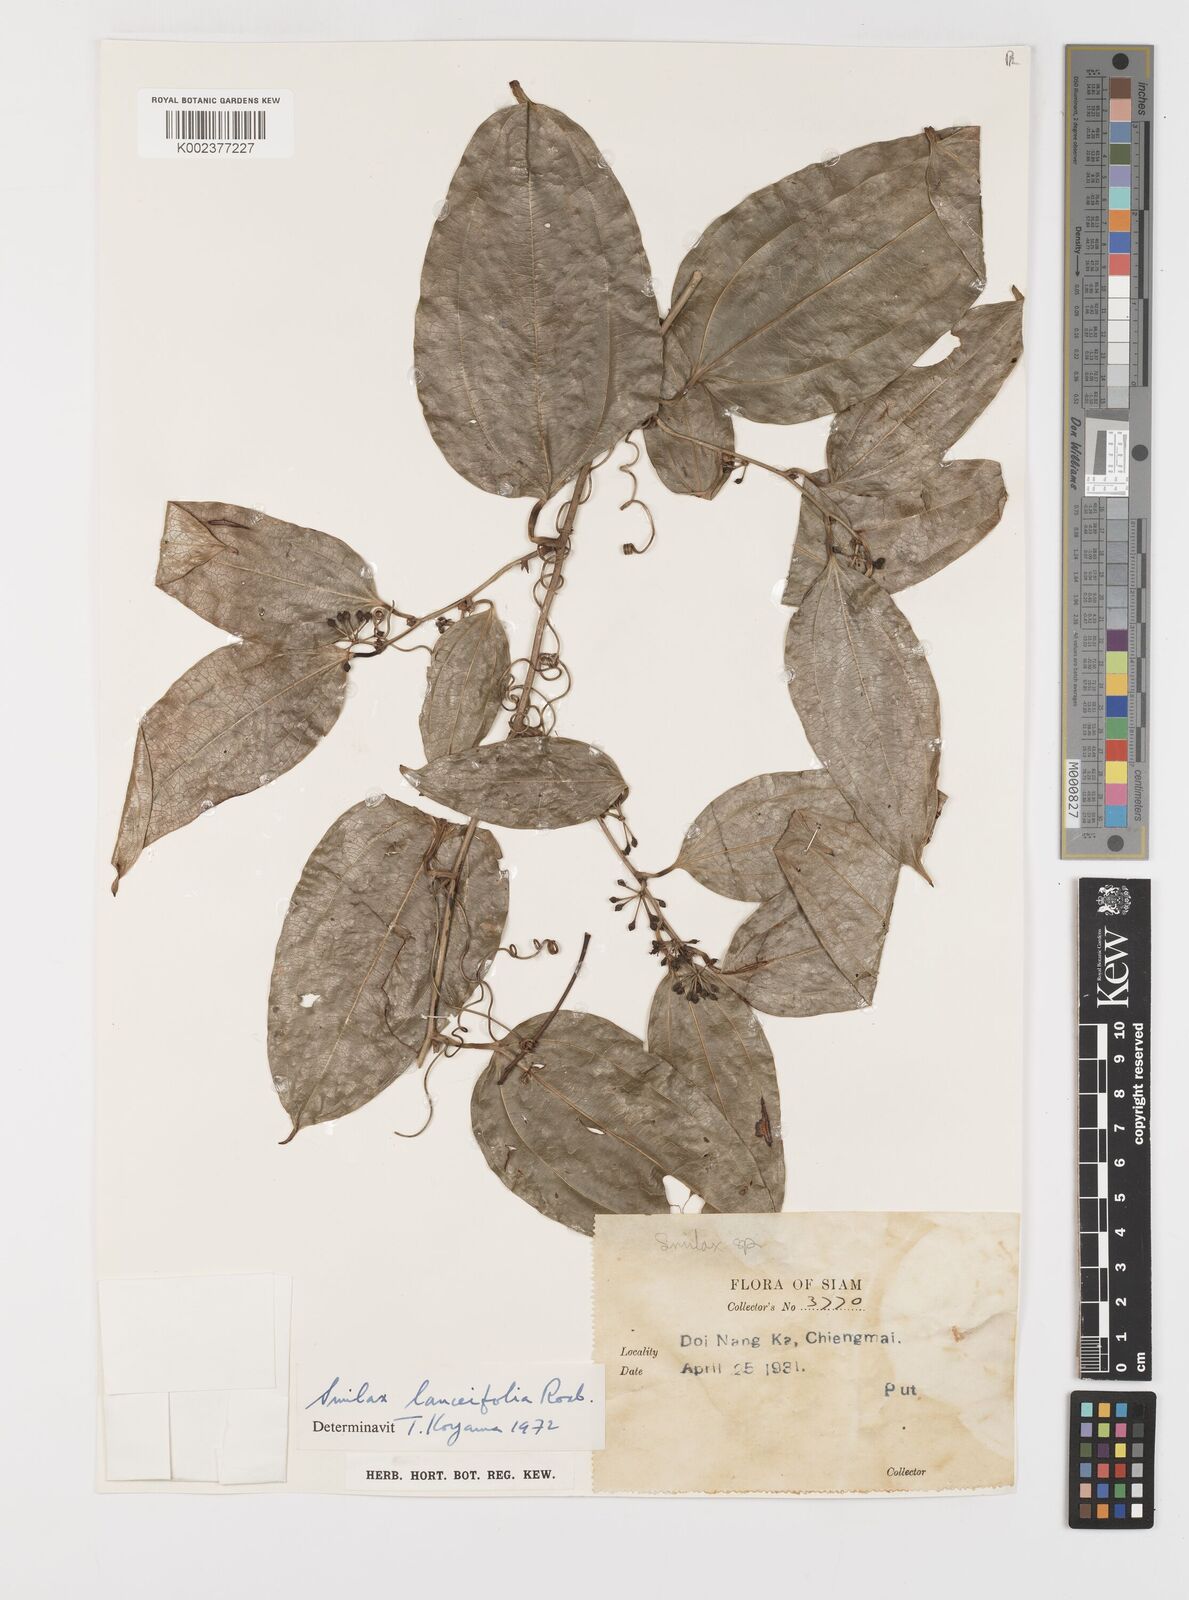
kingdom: Plantae
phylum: Tracheophyta
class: Liliopsida
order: Liliales
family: Smilacaceae
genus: Smilax
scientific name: Smilax lanceifolia
